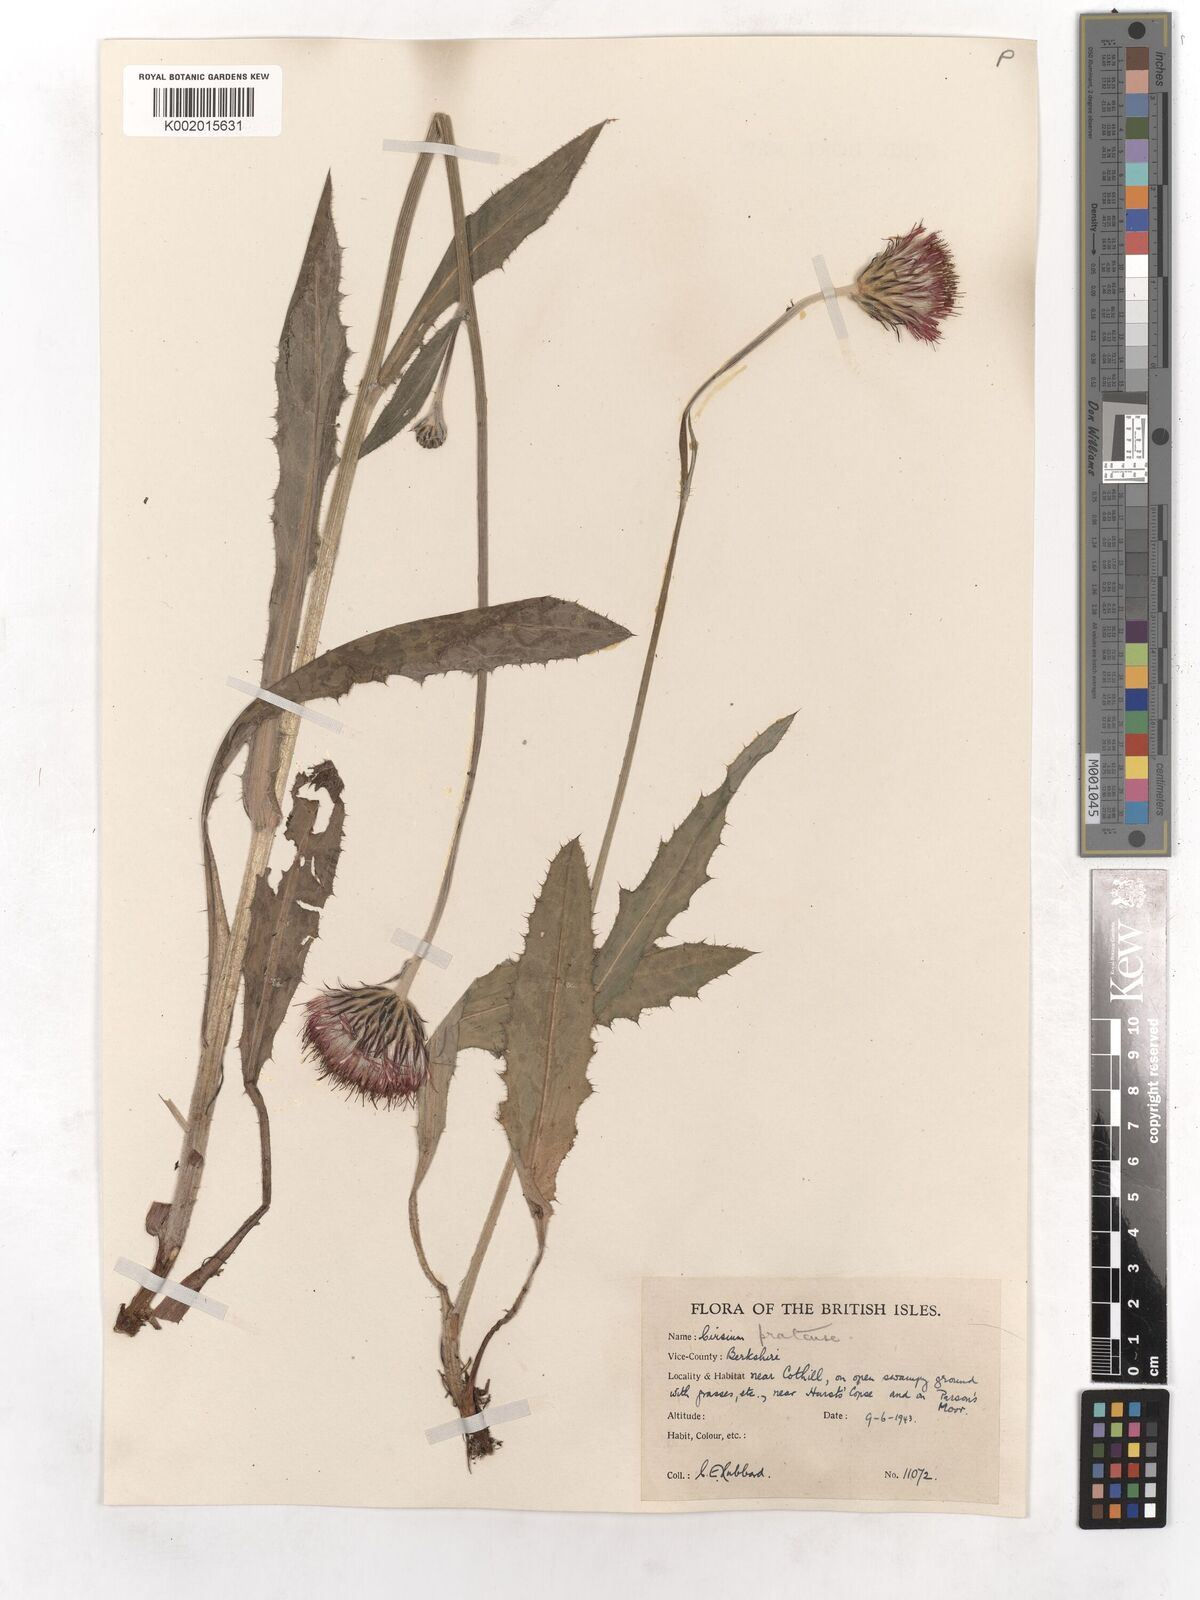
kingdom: Plantae
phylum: Tracheophyta
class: Magnoliopsida
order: Asterales
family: Asteraceae
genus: Cirsium
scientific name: Cirsium dissectum
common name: Meadow thistle
